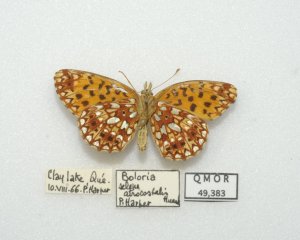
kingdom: Animalia
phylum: Arthropoda
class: Insecta
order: Lepidoptera
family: Nymphalidae
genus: Boloria
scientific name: Boloria selene
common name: Silver-bordered Fritillary
